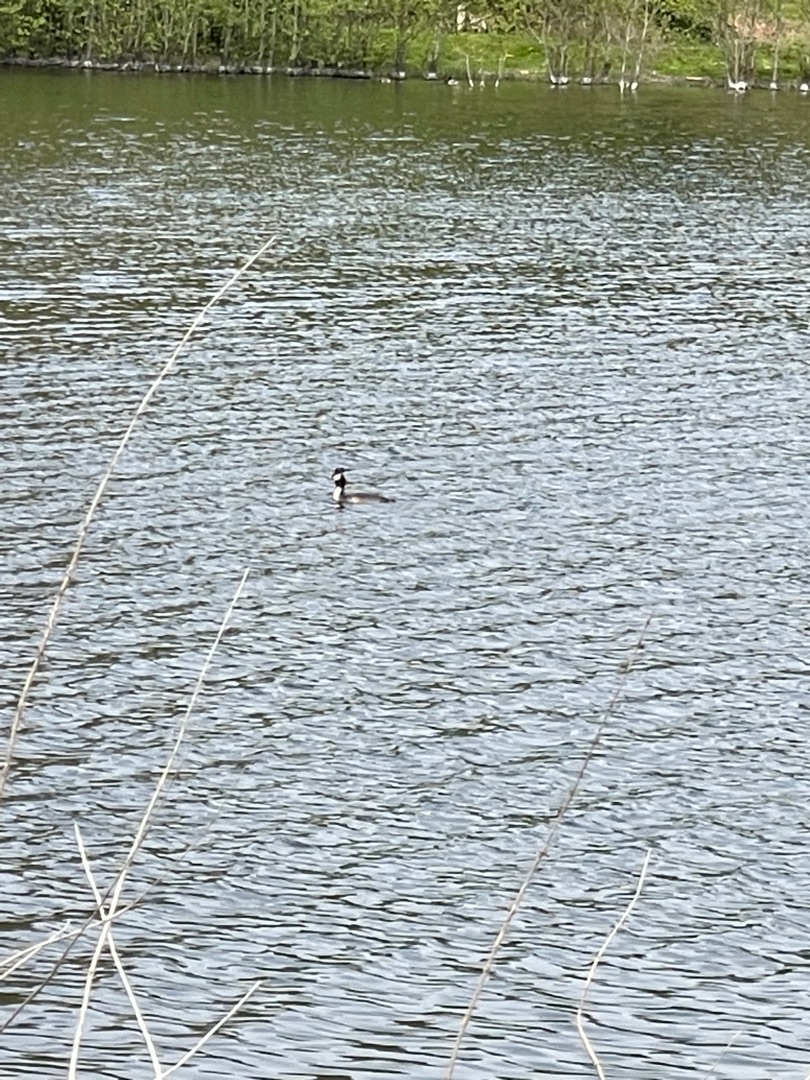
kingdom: Animalia
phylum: Chordata
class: Aves
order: Podicipediformes
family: Podicipedidae
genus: Podiceps
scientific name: Podiceps cristatus
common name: Toppet lappedykker
